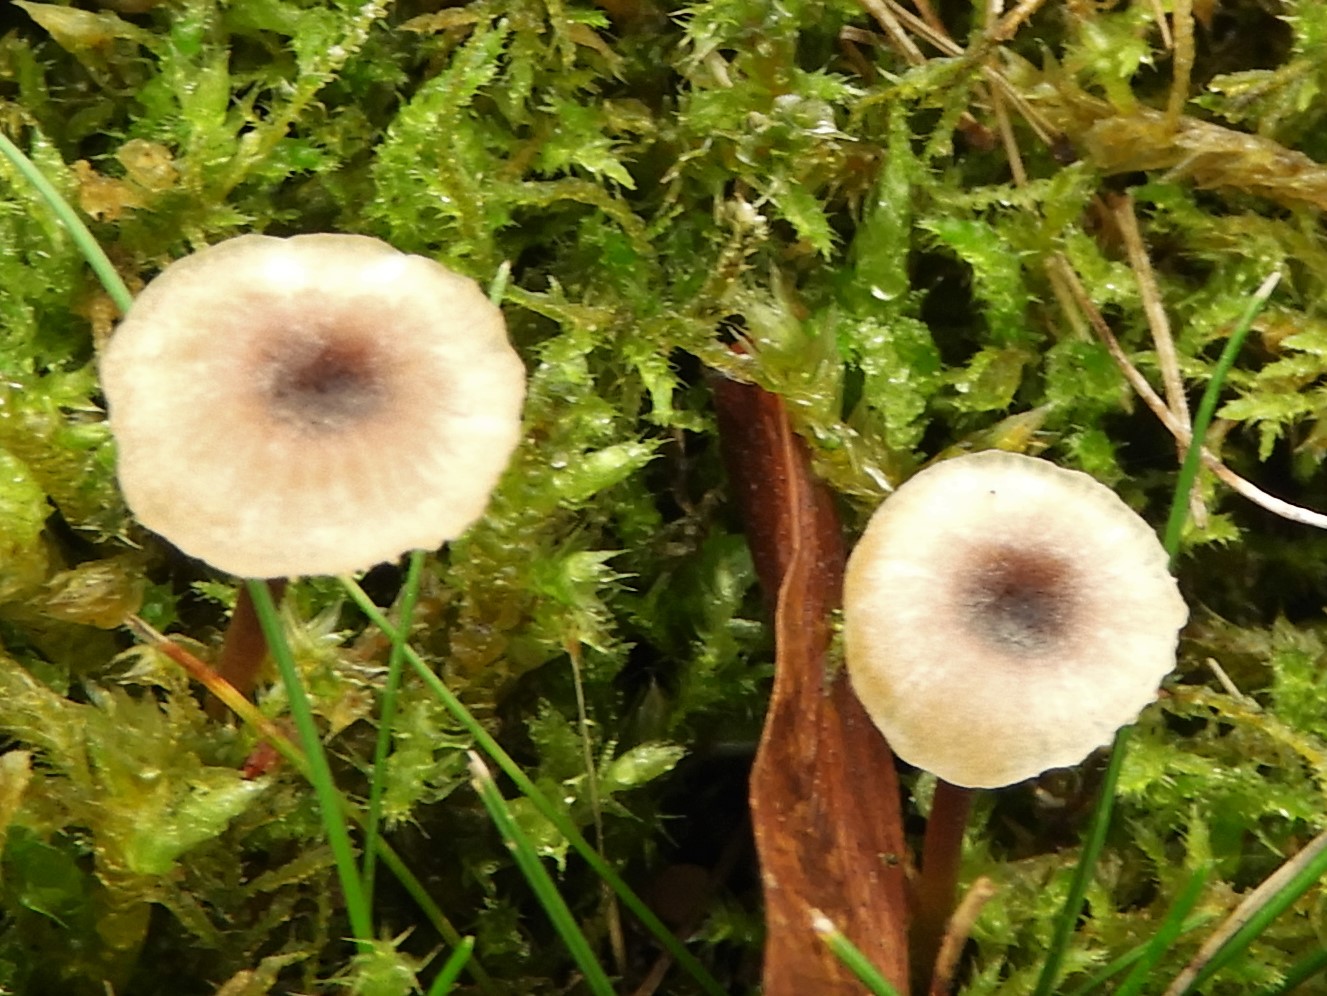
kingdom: Fungi
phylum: Basidiomycota
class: Agaricomycetes
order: Hymenochaetales
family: Rickenellaceae
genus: Rickenella
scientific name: Rickenella swartzii
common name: finstokket mosnavlehat
